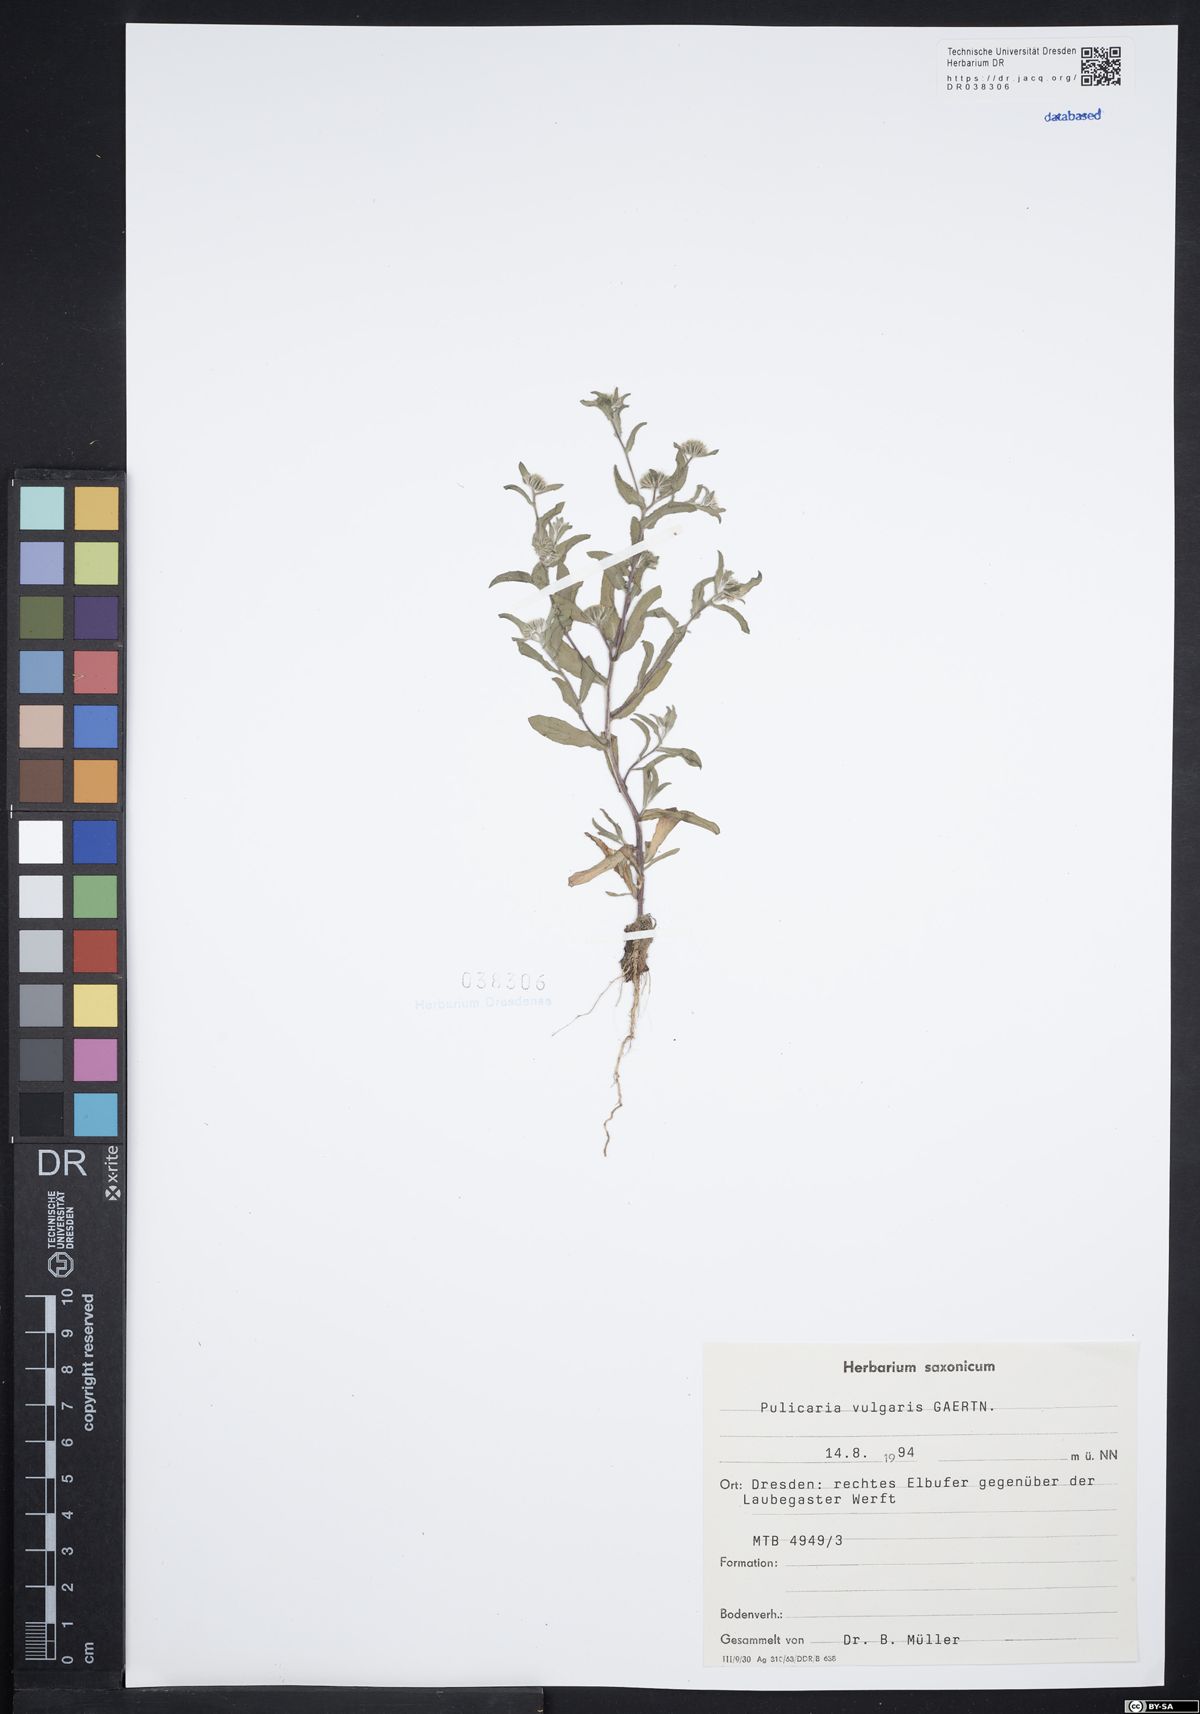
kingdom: Plantae
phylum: Tracheophyta
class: Magnoliopsida
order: Asterales
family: Asteraceae
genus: Pulicaria
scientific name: Pulicaria vulgaris
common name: Small fleabane
